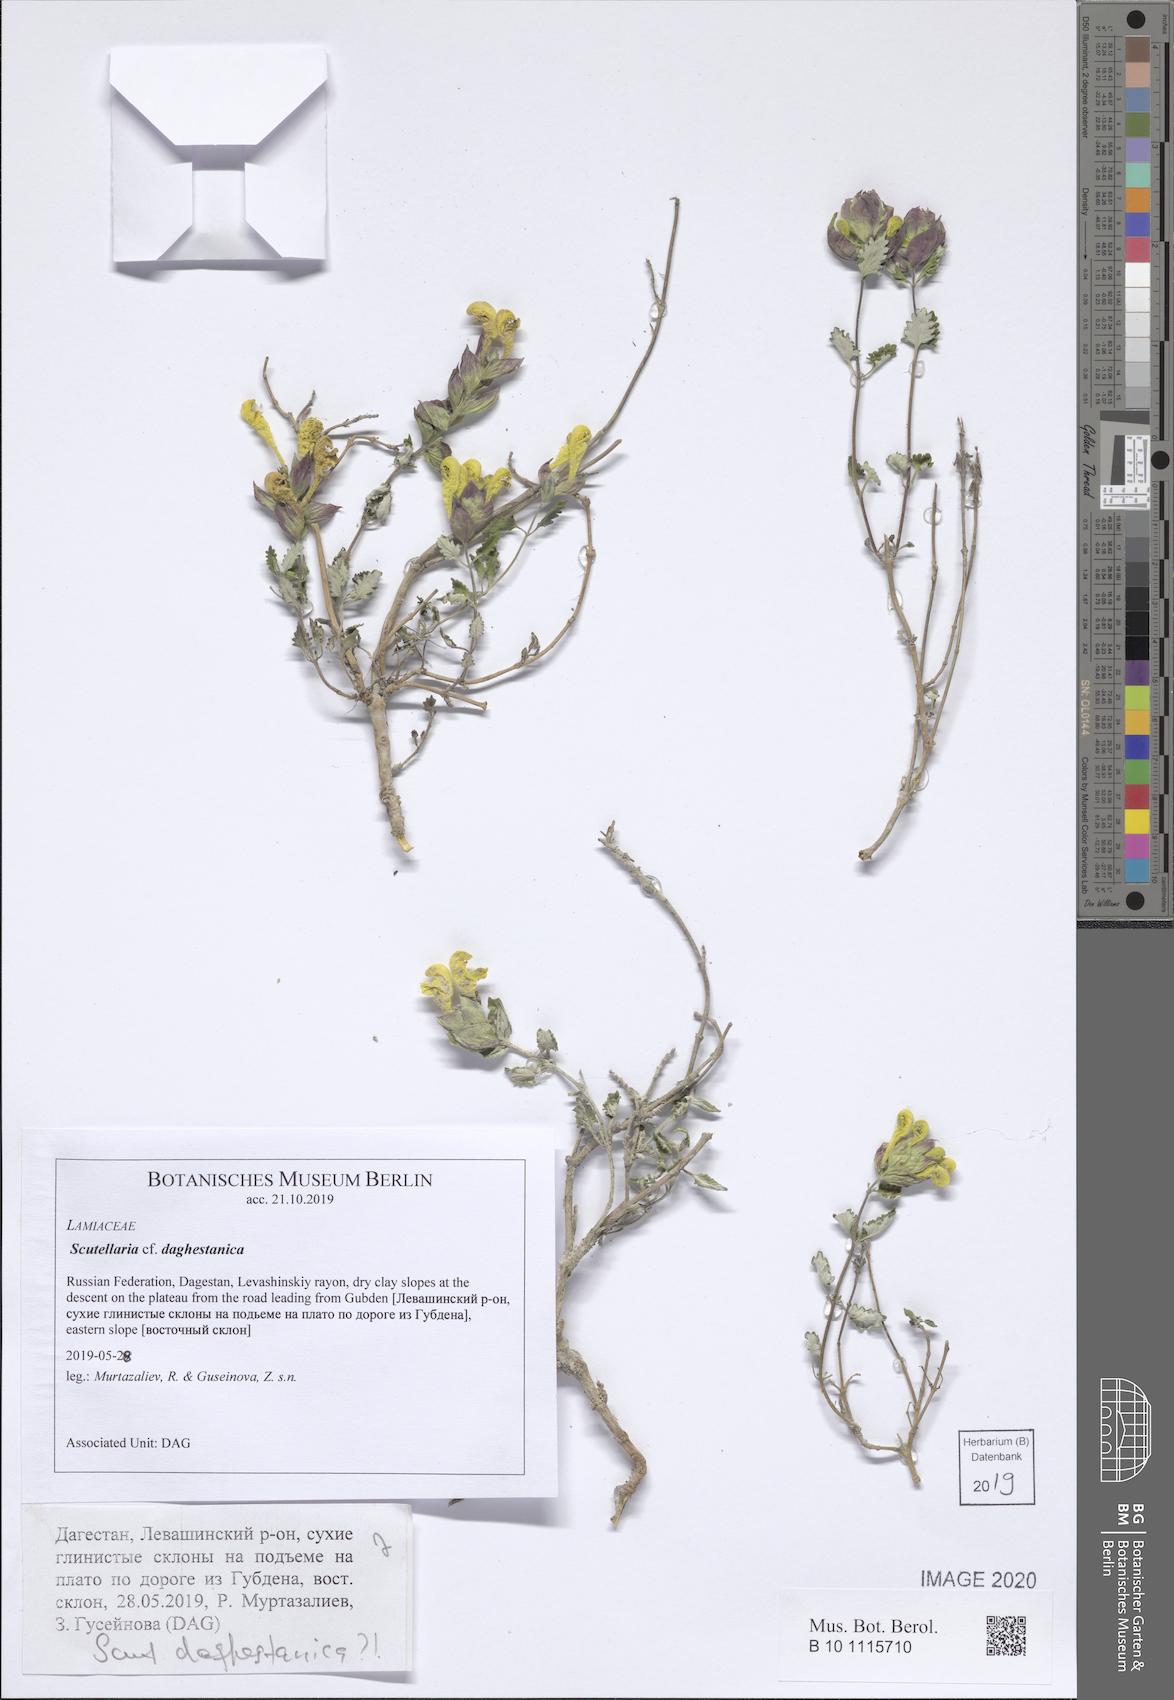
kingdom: Plantae
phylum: Tracheophyta
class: Magnoliopsida
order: Lamiales
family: Lamiaceae
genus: Scutellaria
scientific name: Scutellaria daghestanica
